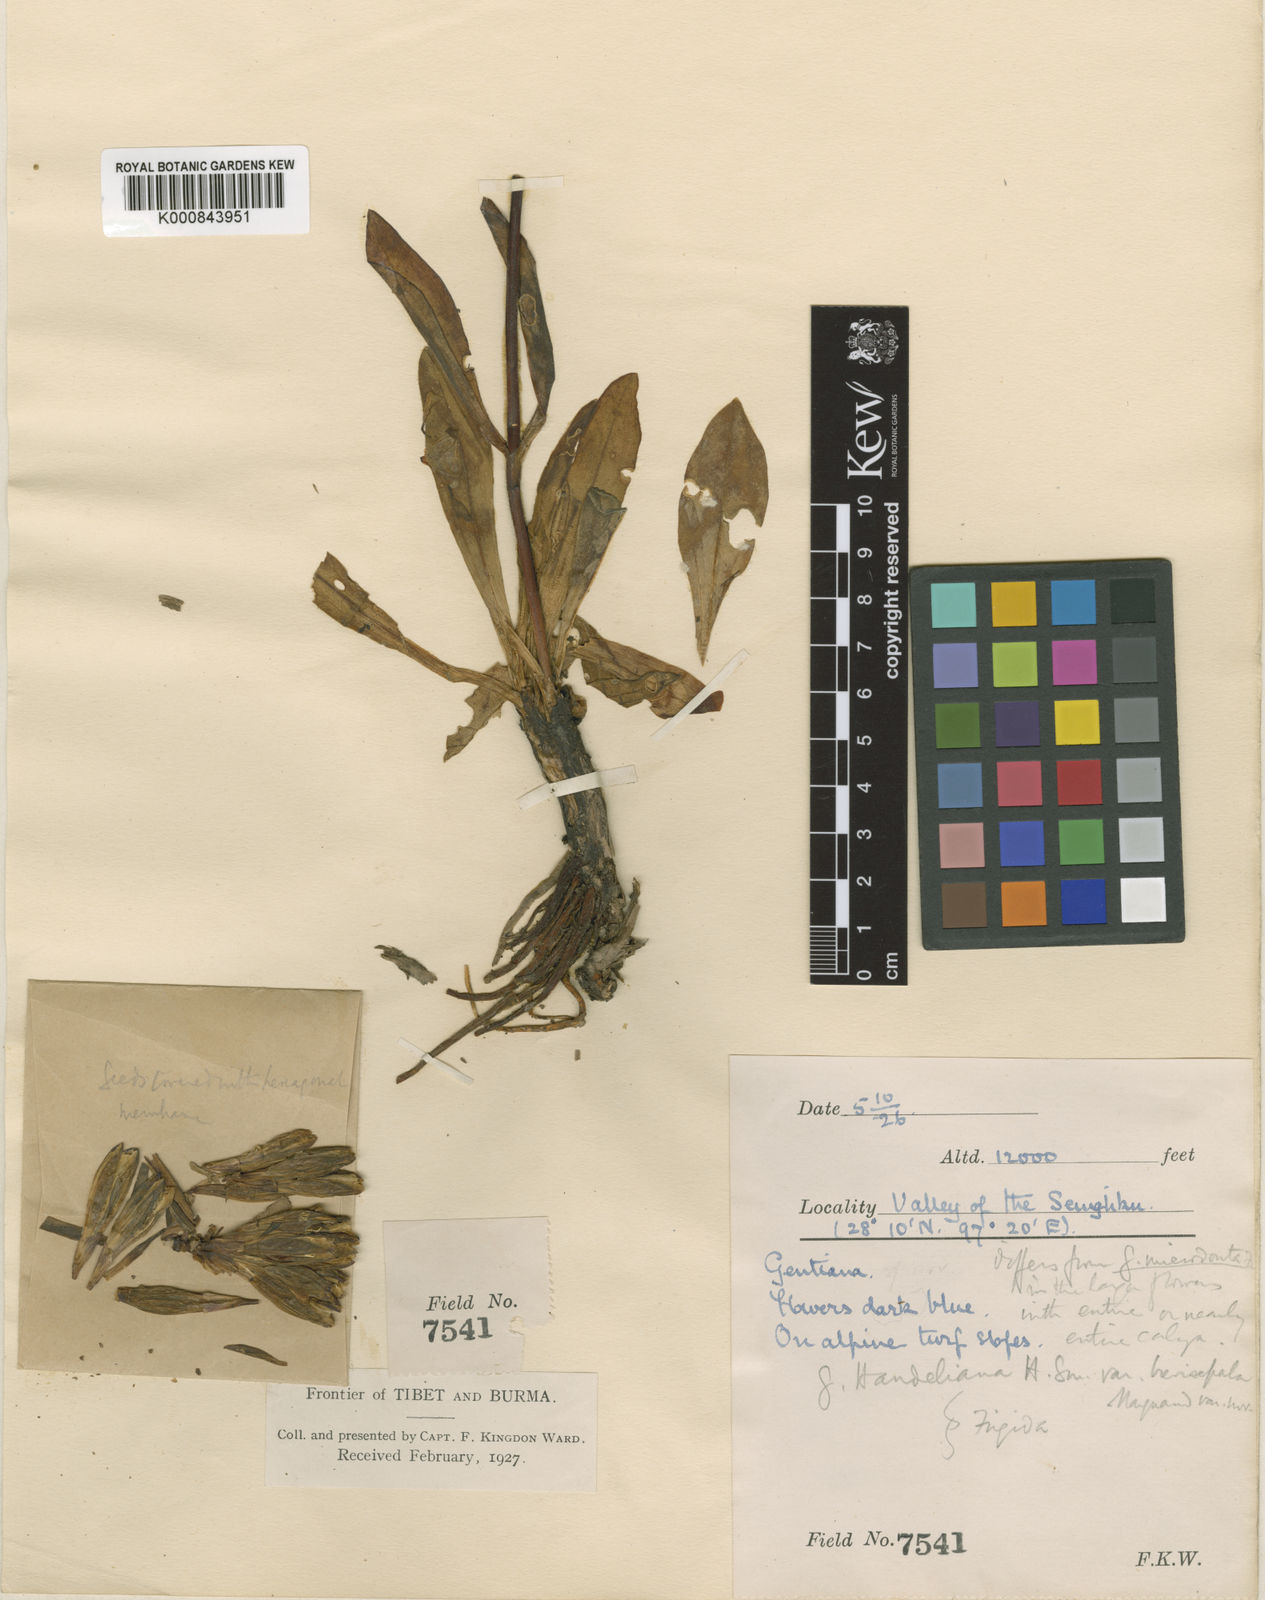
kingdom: Plantae
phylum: Tracheophyta
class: Magnoliopsida
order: Gentianales
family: Gentianaceae
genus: Gentiana
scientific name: Gentiana handeliana
